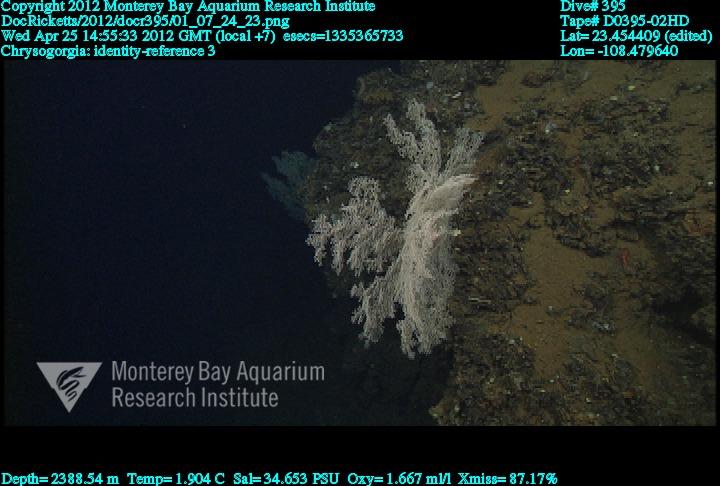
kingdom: Animalia
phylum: Cnidaria
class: Anthozoa
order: Scleralcyonacea
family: Chrysogorgiidae
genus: Chrysogorgia
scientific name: Chrysogorgia
